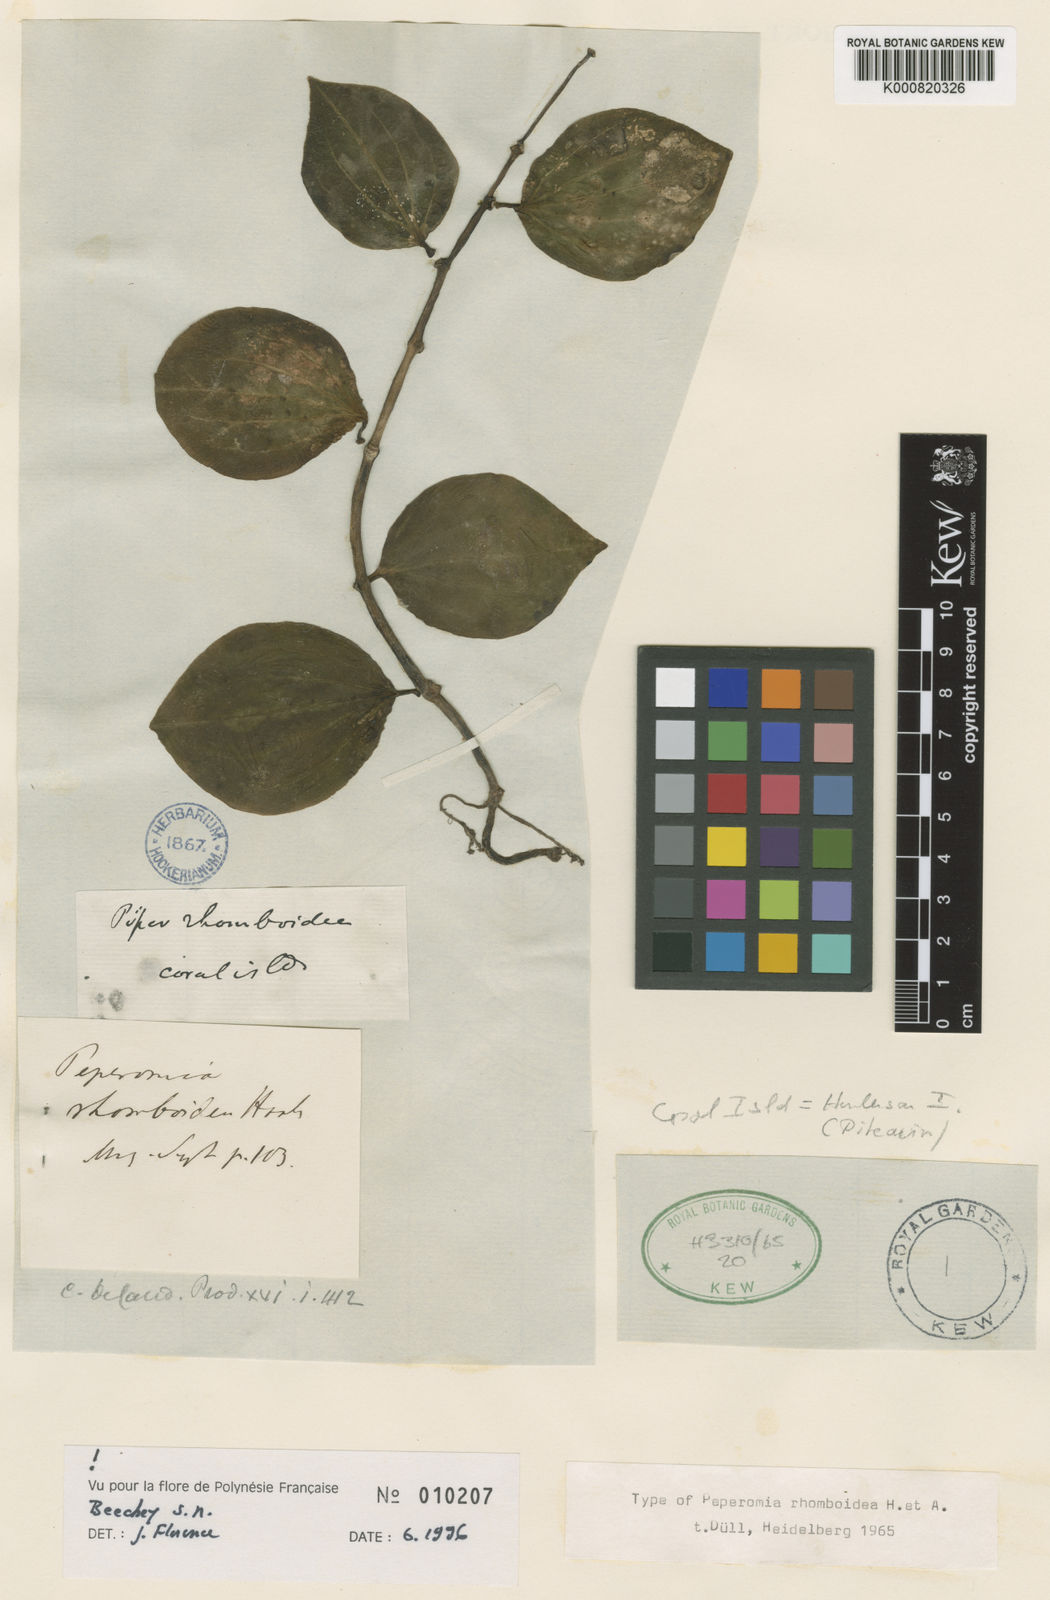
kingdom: Plantae
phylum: Tracheophyta
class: Magnoliopsida
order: Piperales
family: Piperaceae
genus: Peperomia
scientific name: Peperomia rhomboidea
